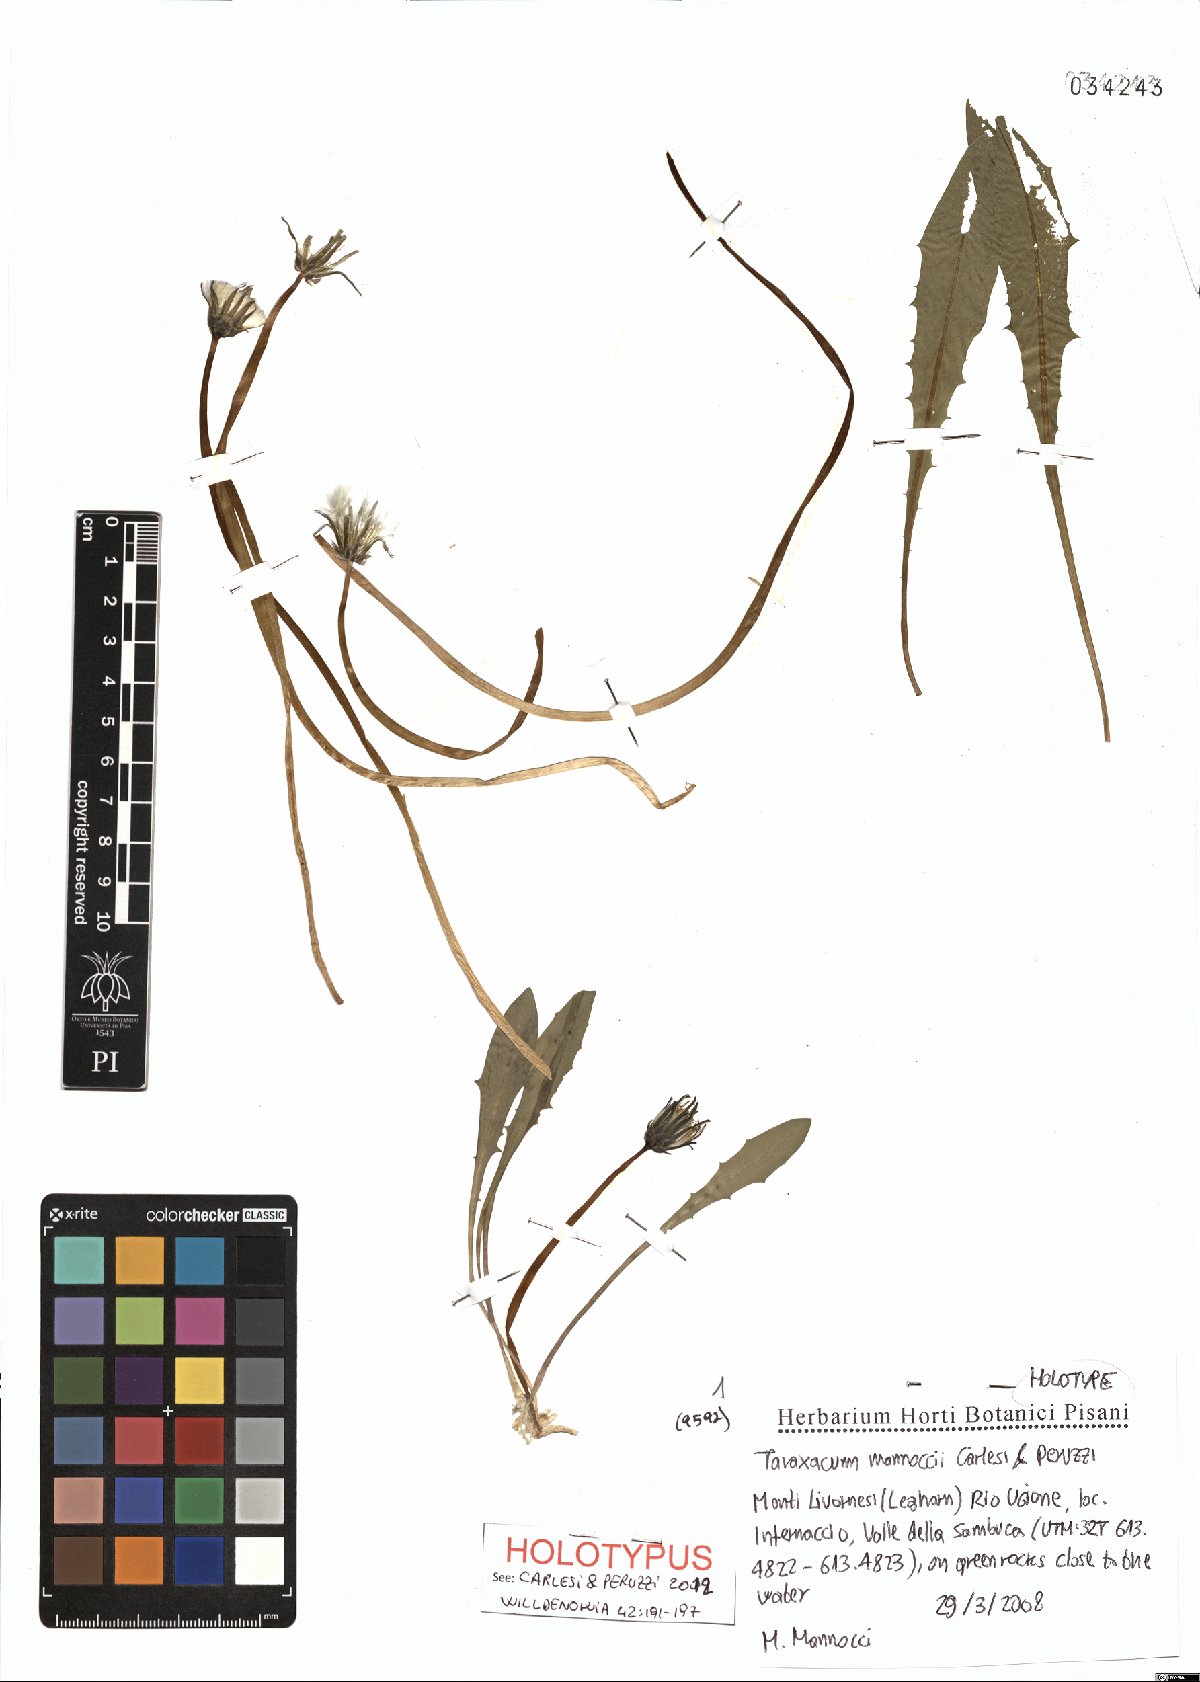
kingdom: Plantae
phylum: Tracheophyta
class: Magnoliopsida
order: Asterales
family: Asteraceae
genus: Taraxacum
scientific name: Taraxacum mannoccii
